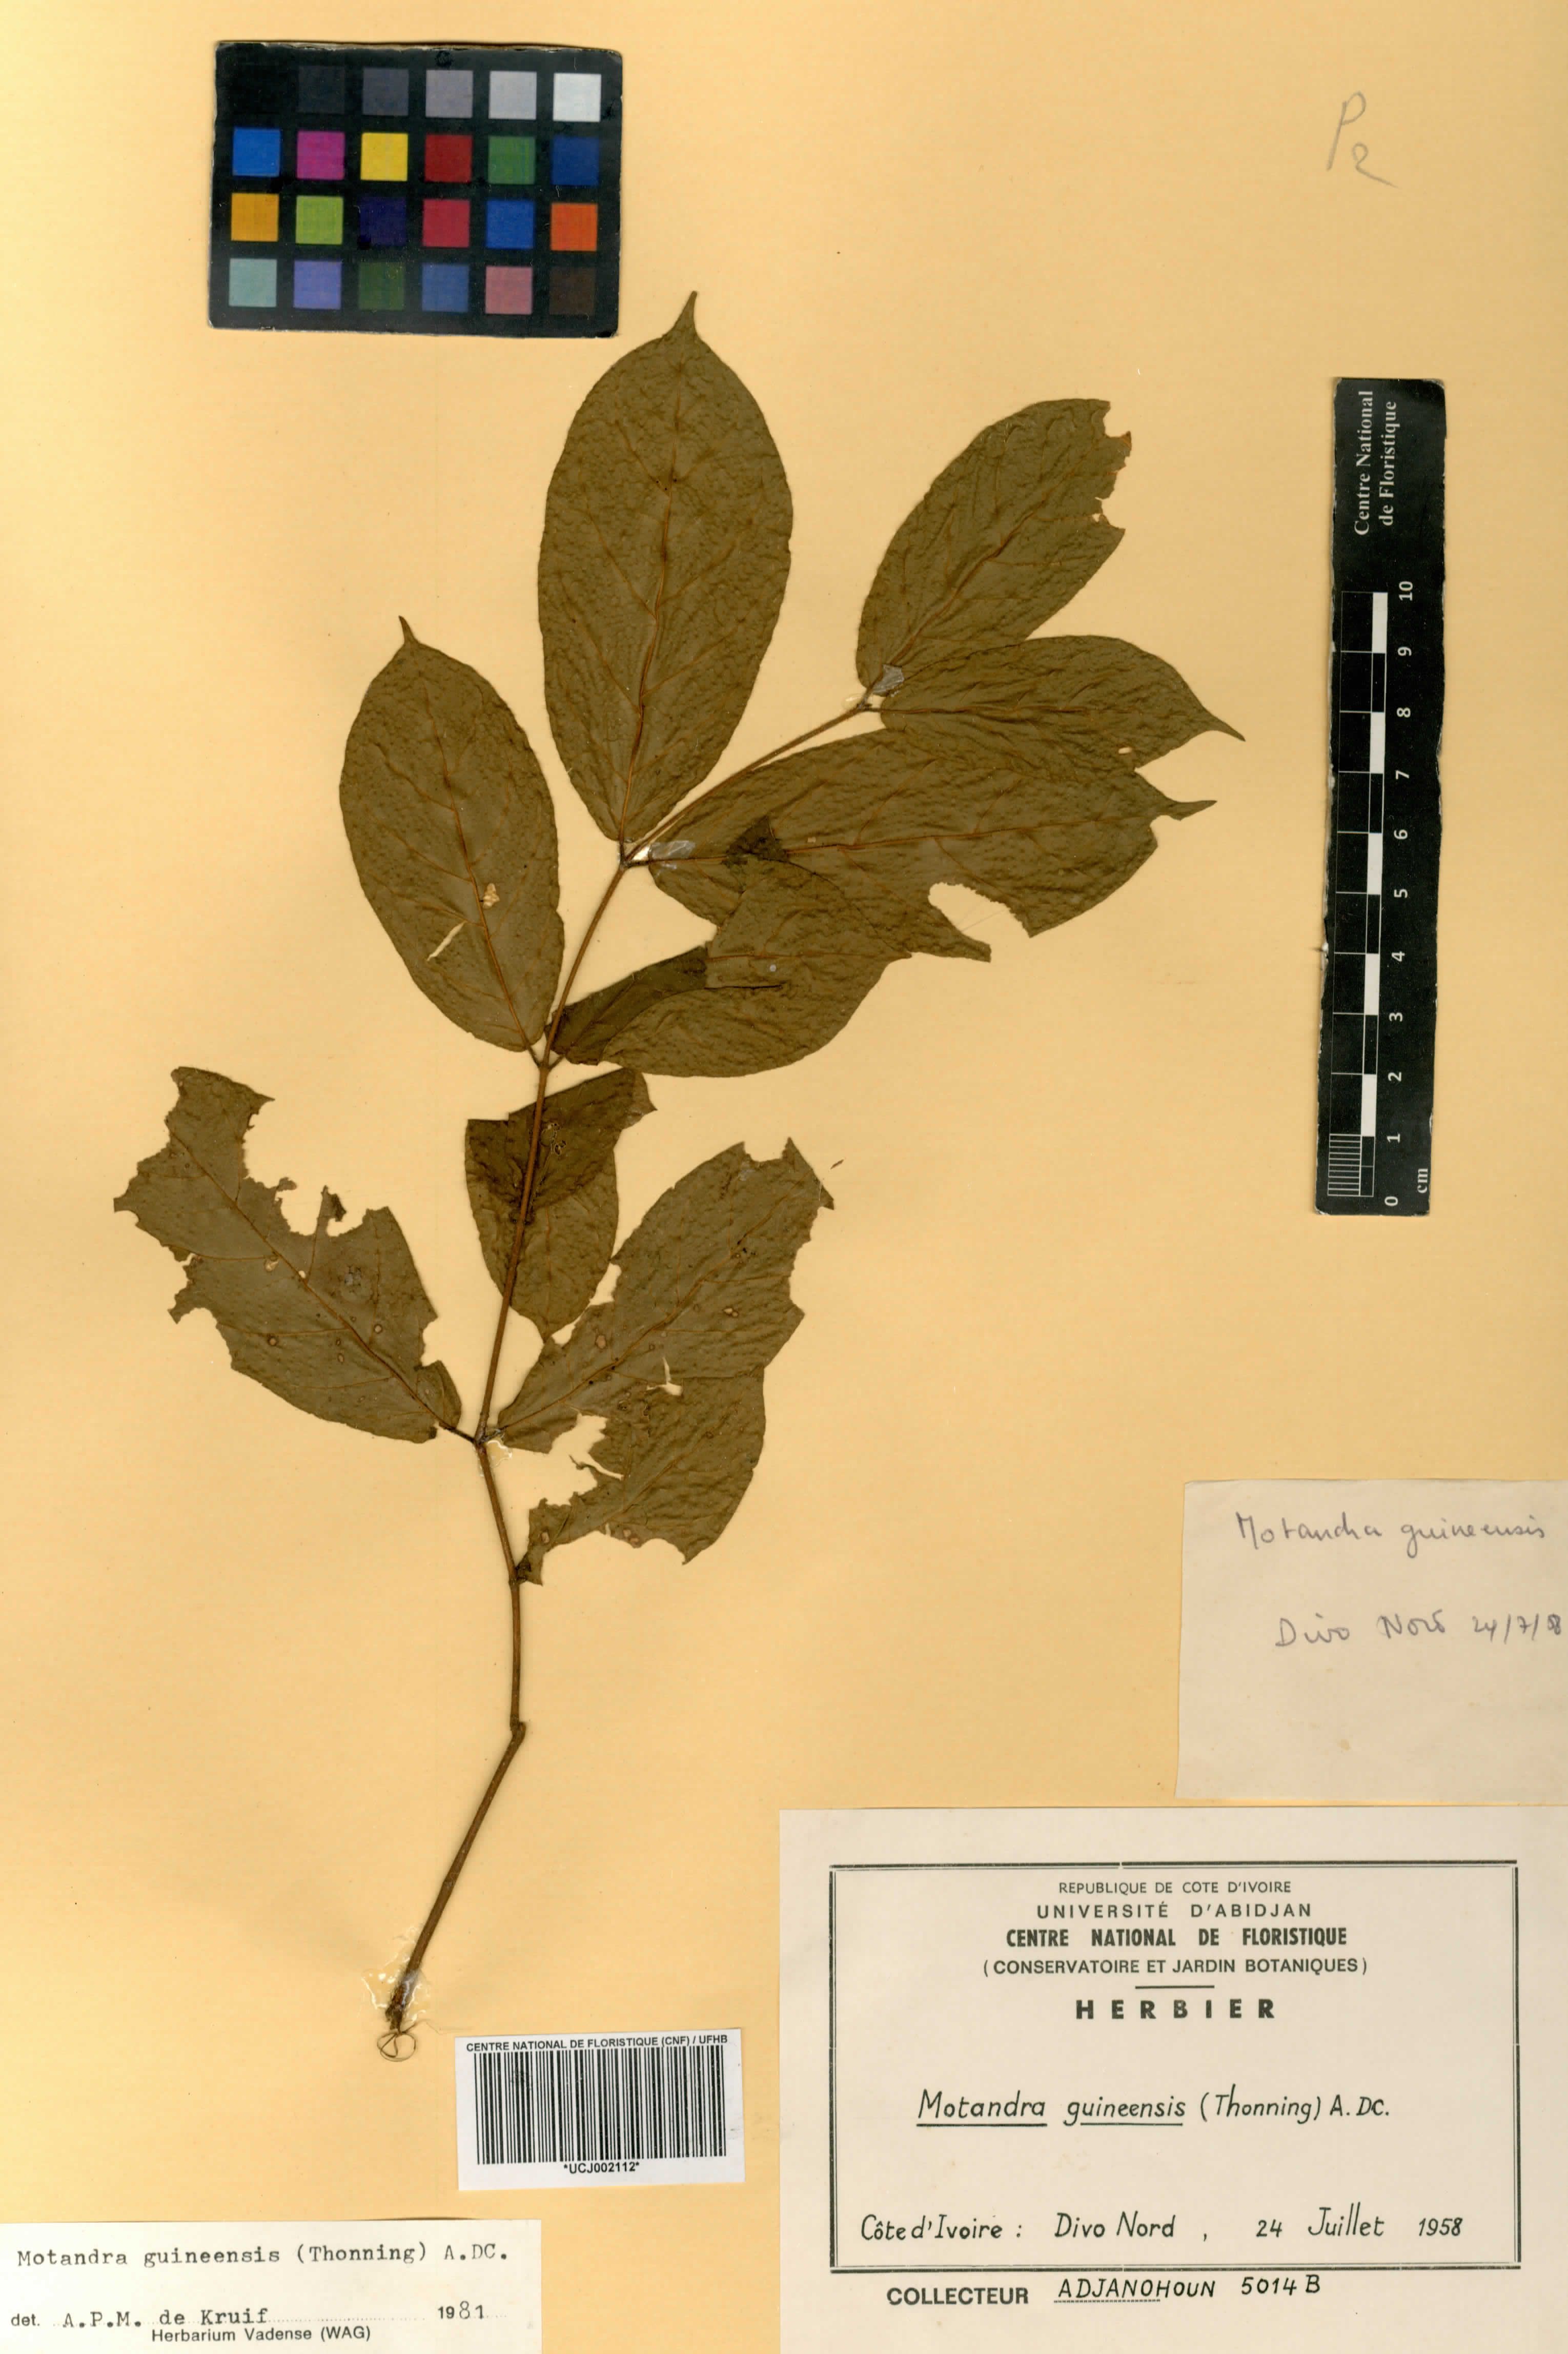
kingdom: Plantae
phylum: Tracheophyta
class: Magnoliopsida
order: Gentianales
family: Apocynaceae
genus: Motandra
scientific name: Motandra paniculata
